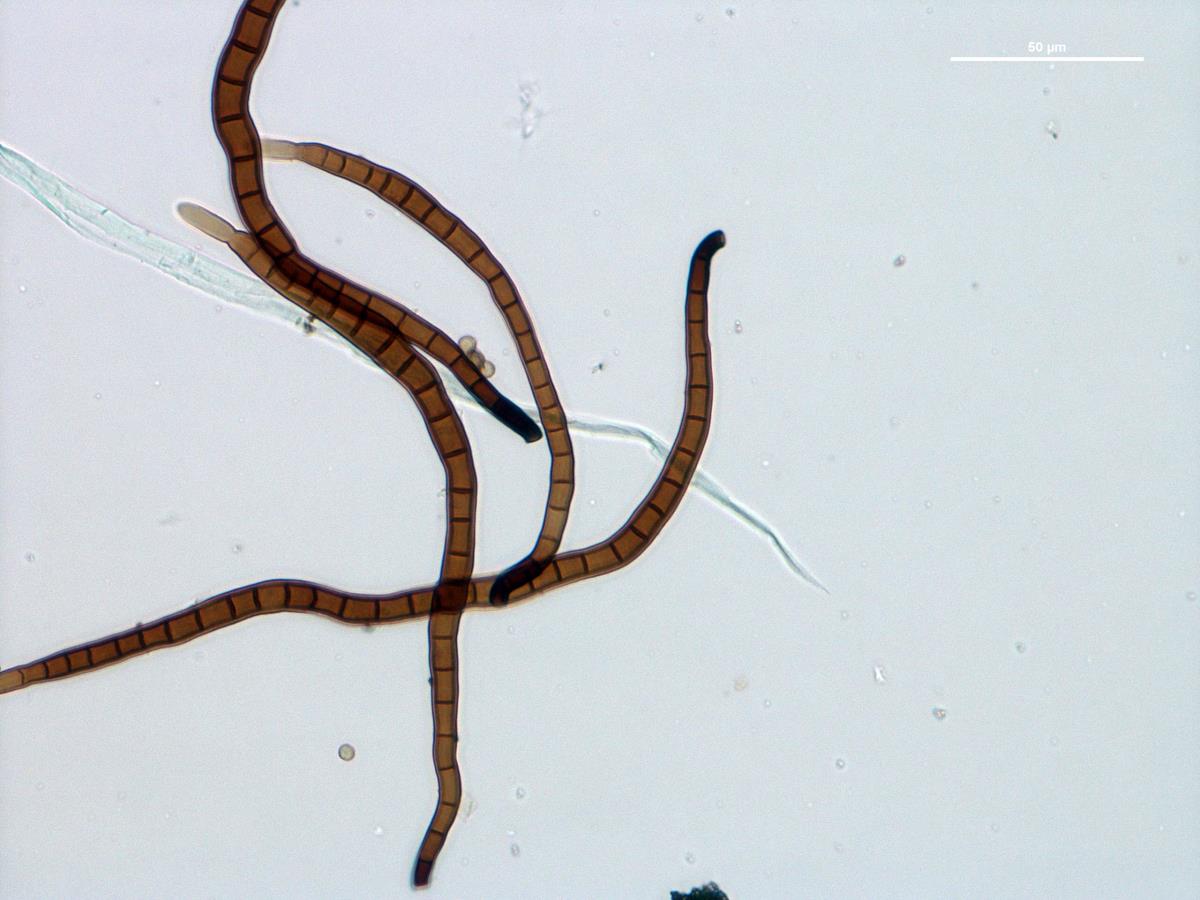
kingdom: Fungi
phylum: Ascomycota
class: Sordariomycetes
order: Chaetosphaeriales
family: Chaetosphaeriaceae
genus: Ellisembia
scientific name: Ellisembia
